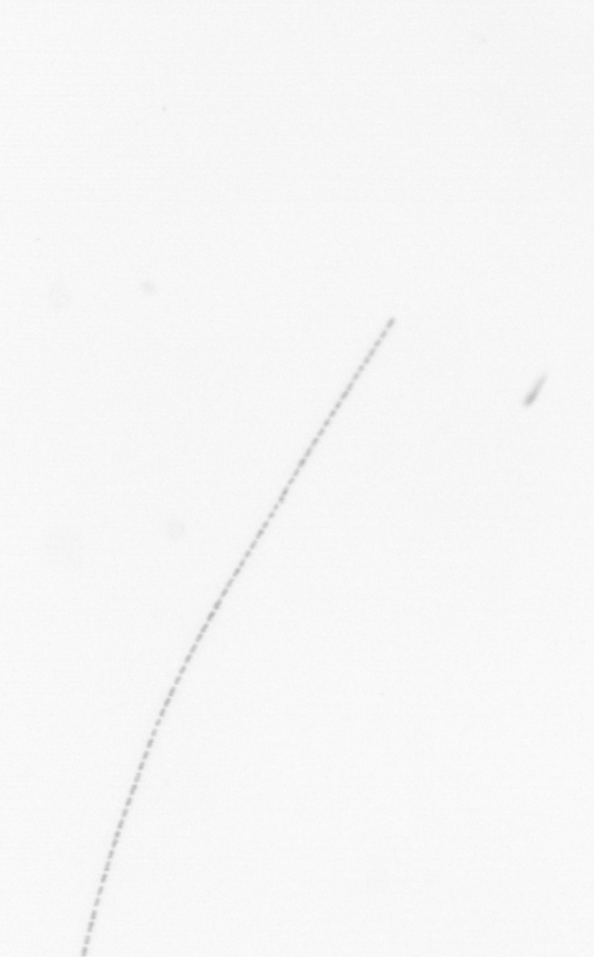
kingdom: Chromista
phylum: Ochrophyta
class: Bacillariophyceae
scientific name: Bacillariophyceae
